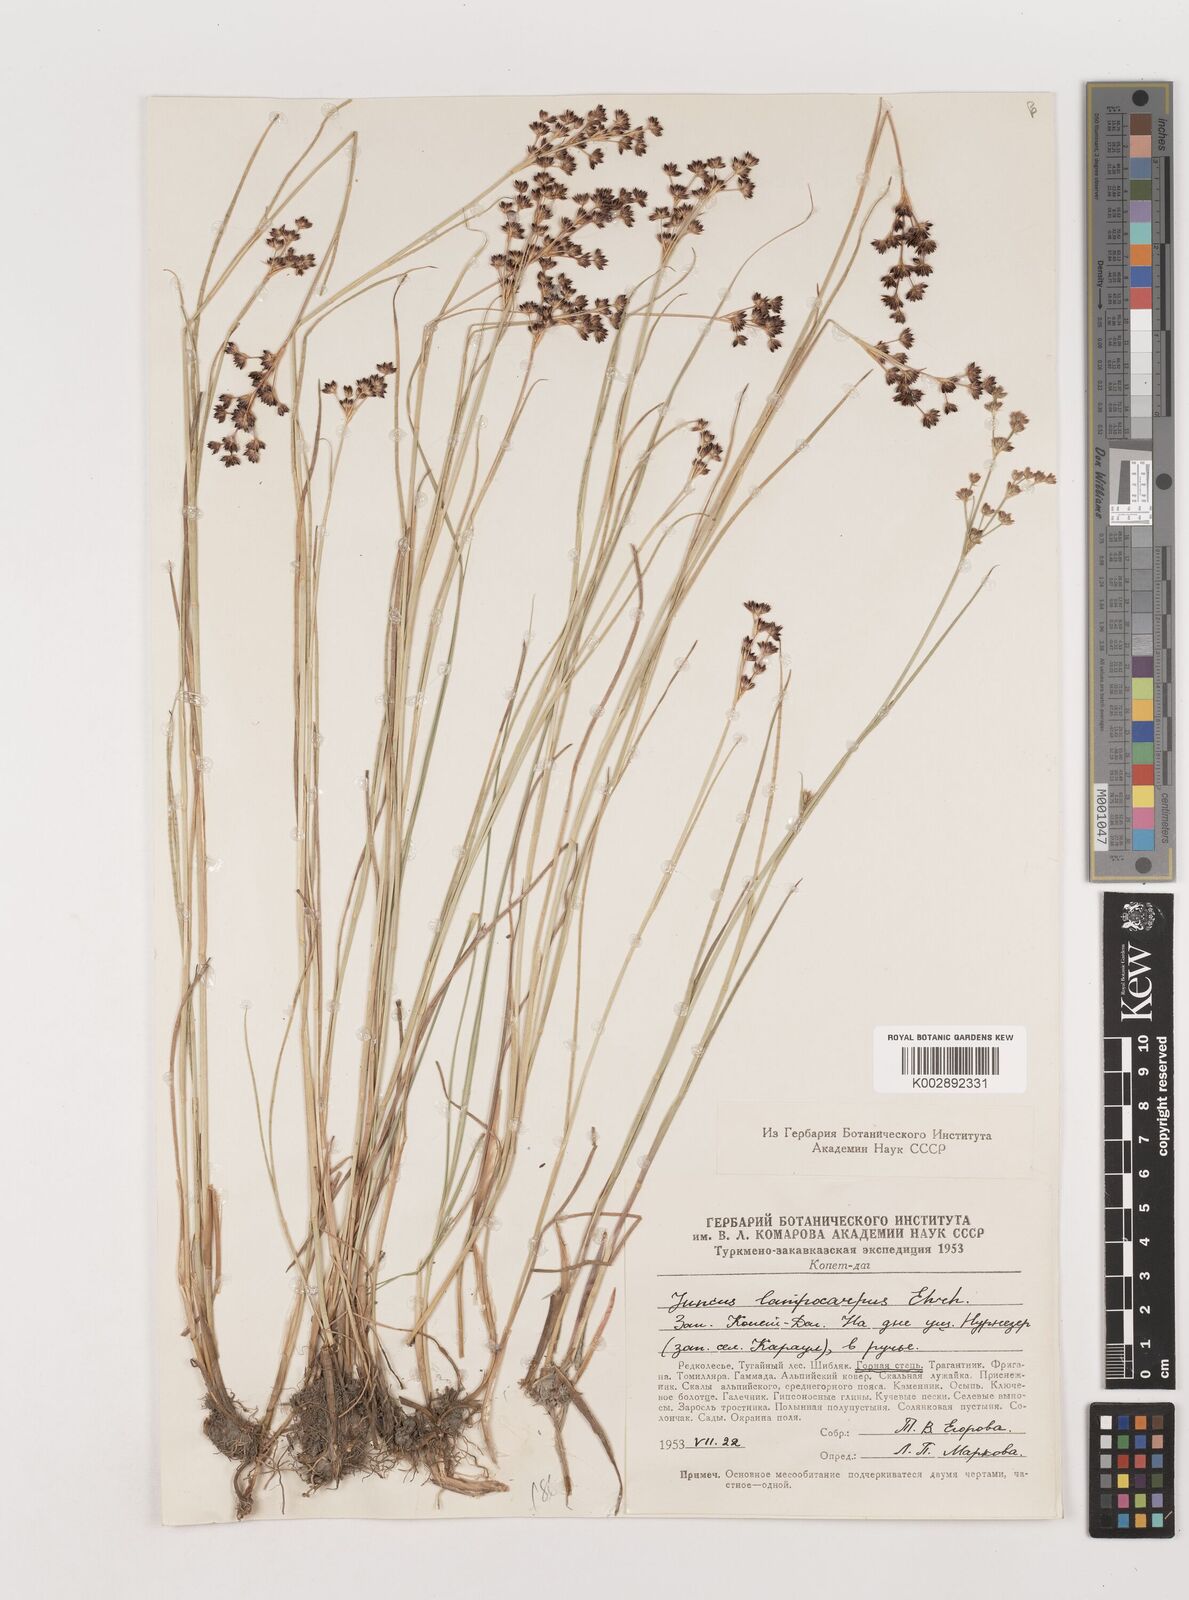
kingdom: Plantae
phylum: Tracheophyta
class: Liliopsida
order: Poales
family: Juncaceae
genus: Juncus
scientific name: Juncus articulatus
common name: Jointed rush
